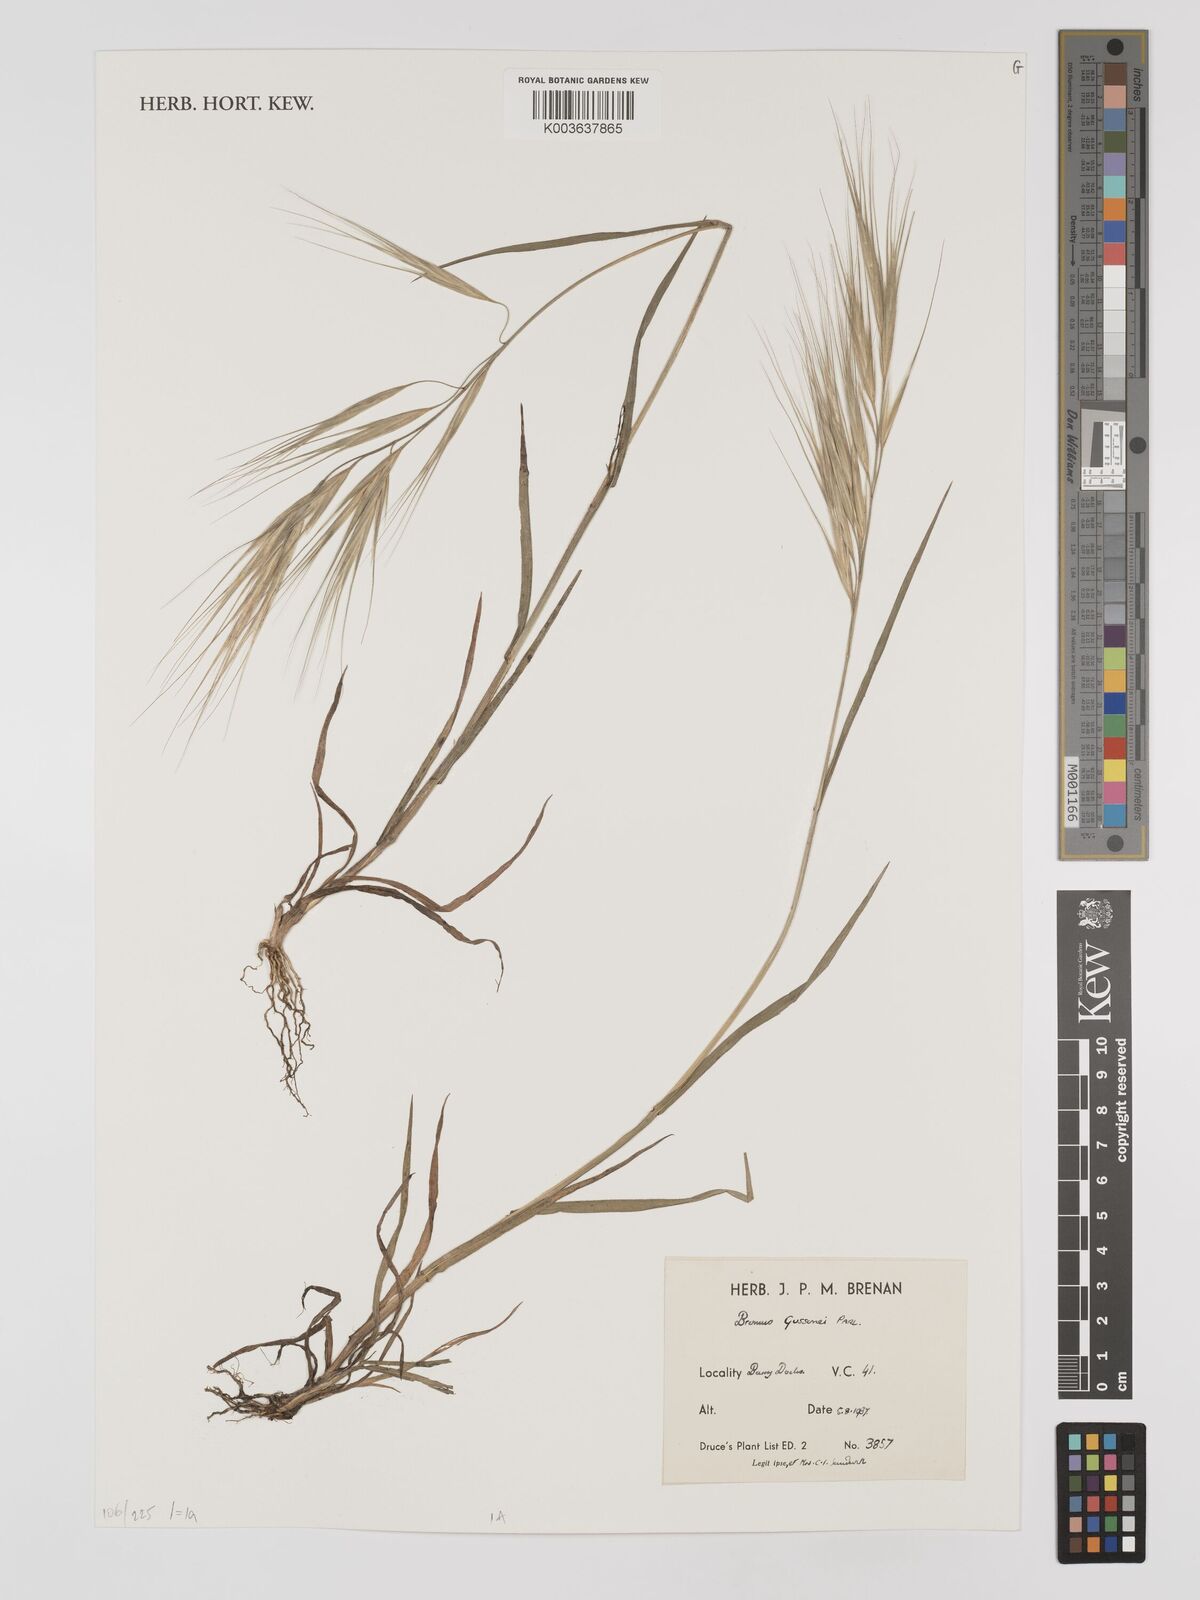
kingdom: Plantae
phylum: Tracheophyta
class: Liliopsida
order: Poales
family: Poaceae
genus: Bromus
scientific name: Bromus
